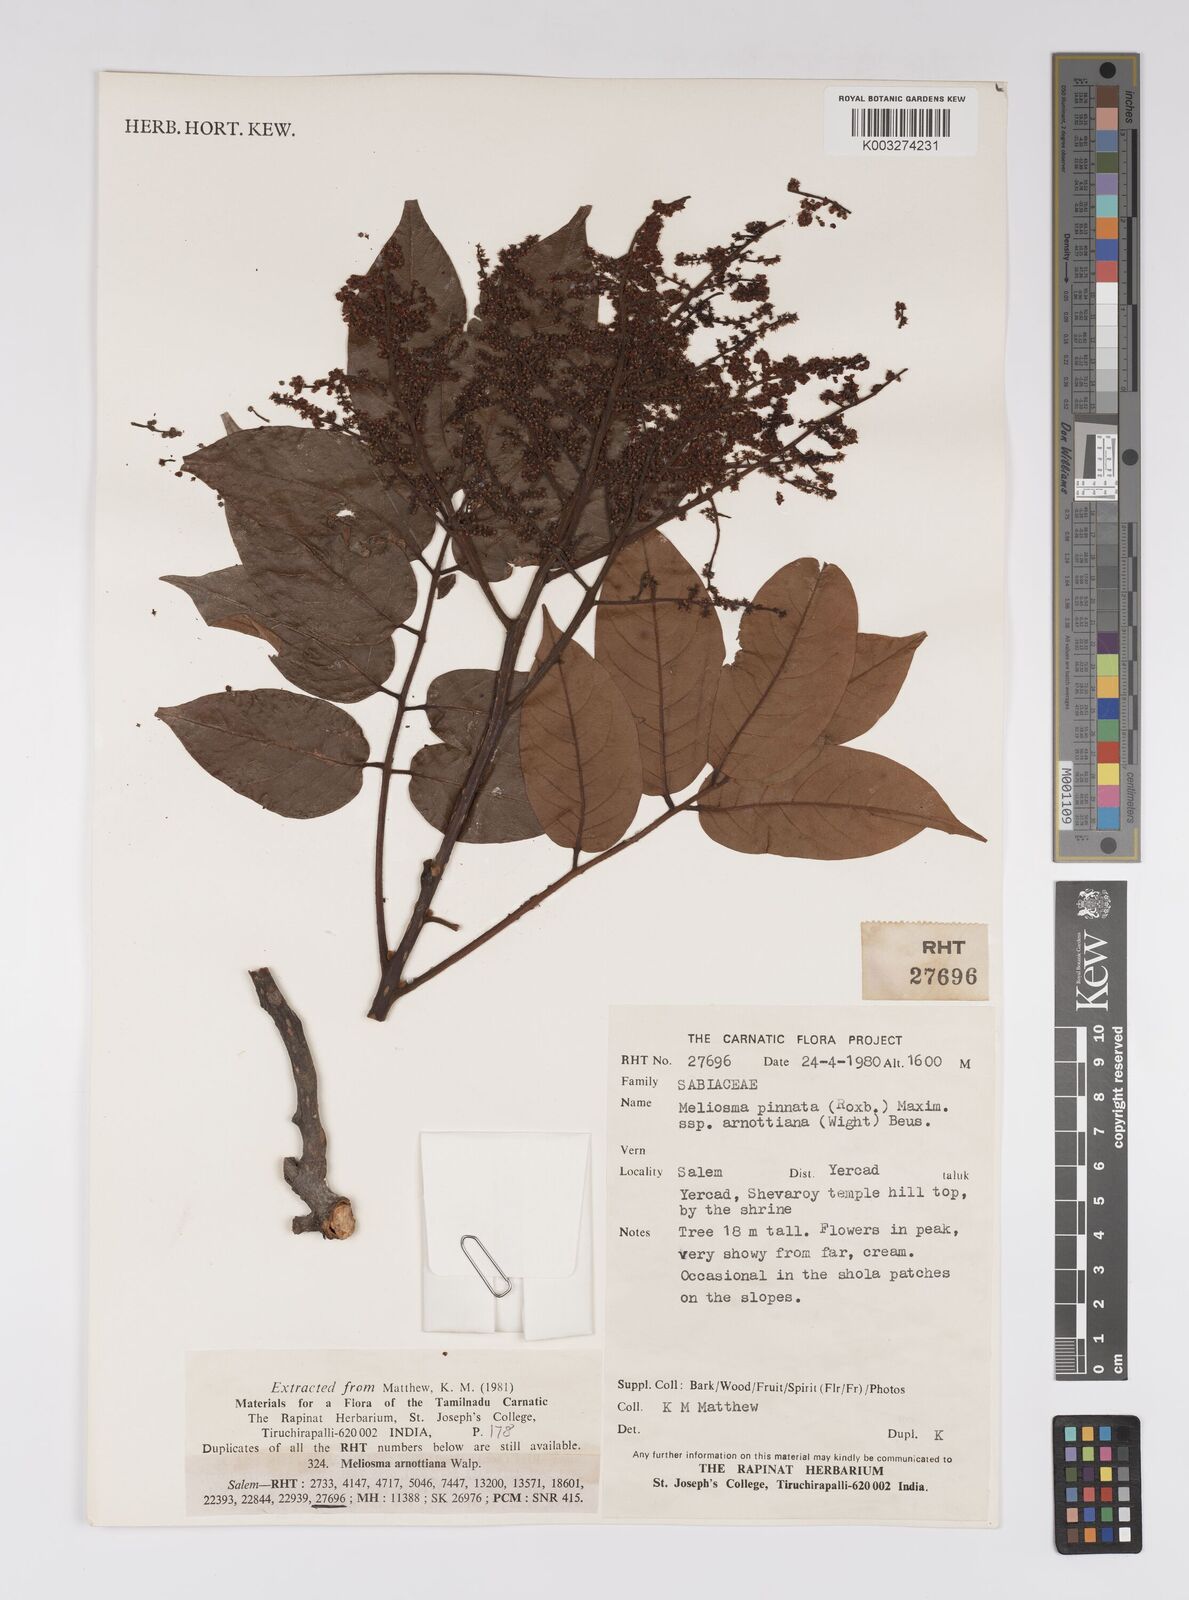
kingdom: Plantae
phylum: Tracheophyta
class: Magnoliopsida
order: Proteales
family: Sabiaceae
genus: Meliosma
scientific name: Meliosma rhoifolia
